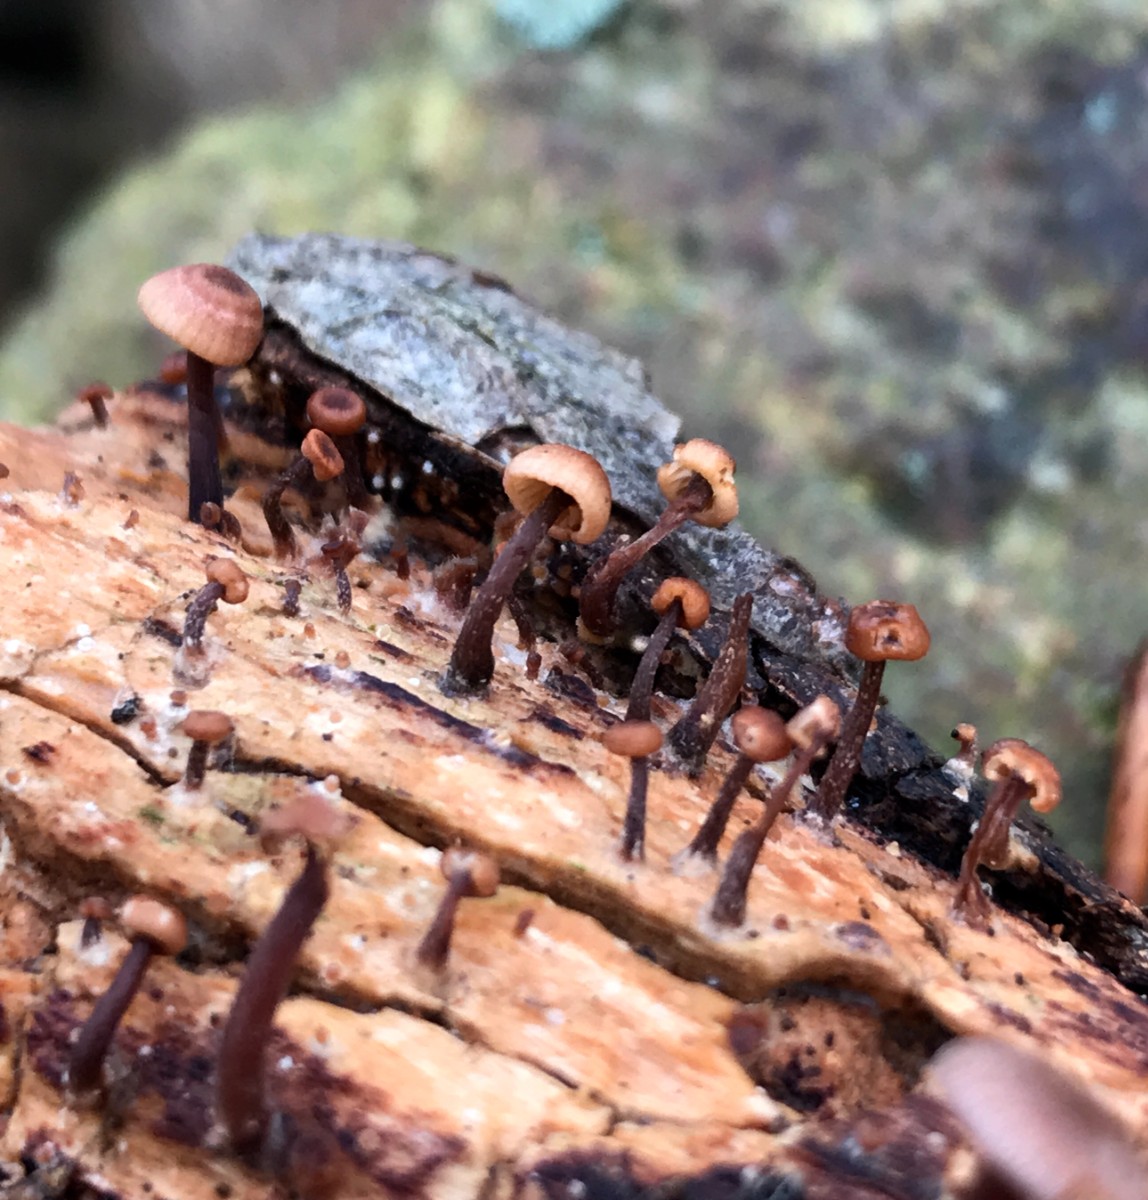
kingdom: Fungi
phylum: Basidiomycota
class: Agaricomycetes
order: Agaricales
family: Omphalotaceae
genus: Gymnopus
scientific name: Gymnopus foetidus
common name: stinkende fladhat
